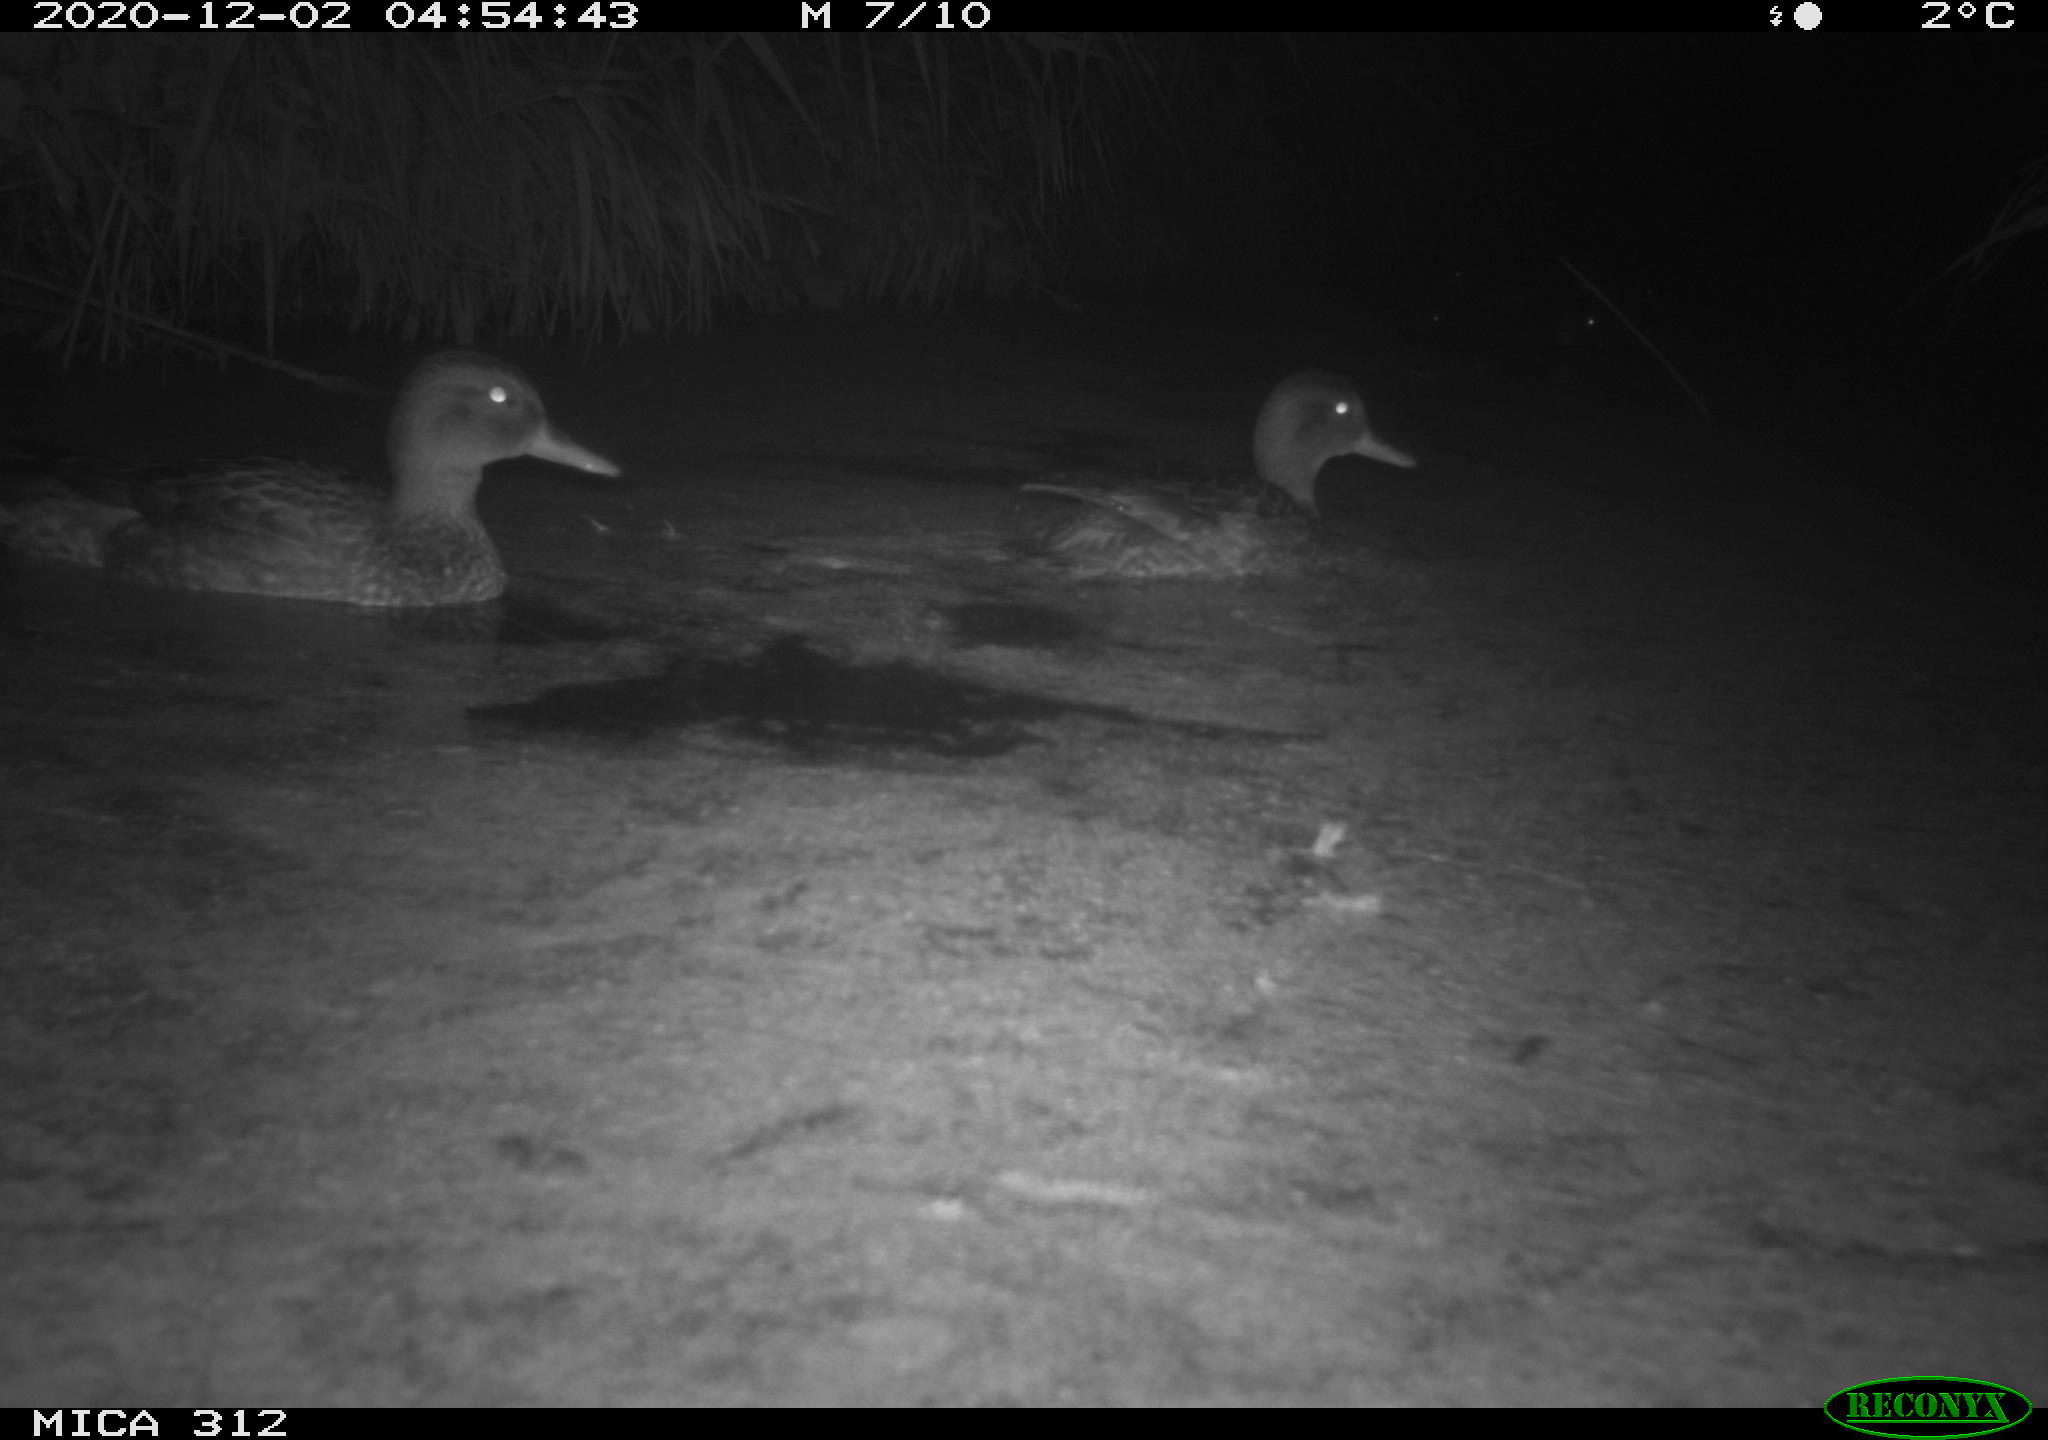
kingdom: Animalia
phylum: Chordata
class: Aves
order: Anseriformes
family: Anatidae
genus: Anas
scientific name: Anas
